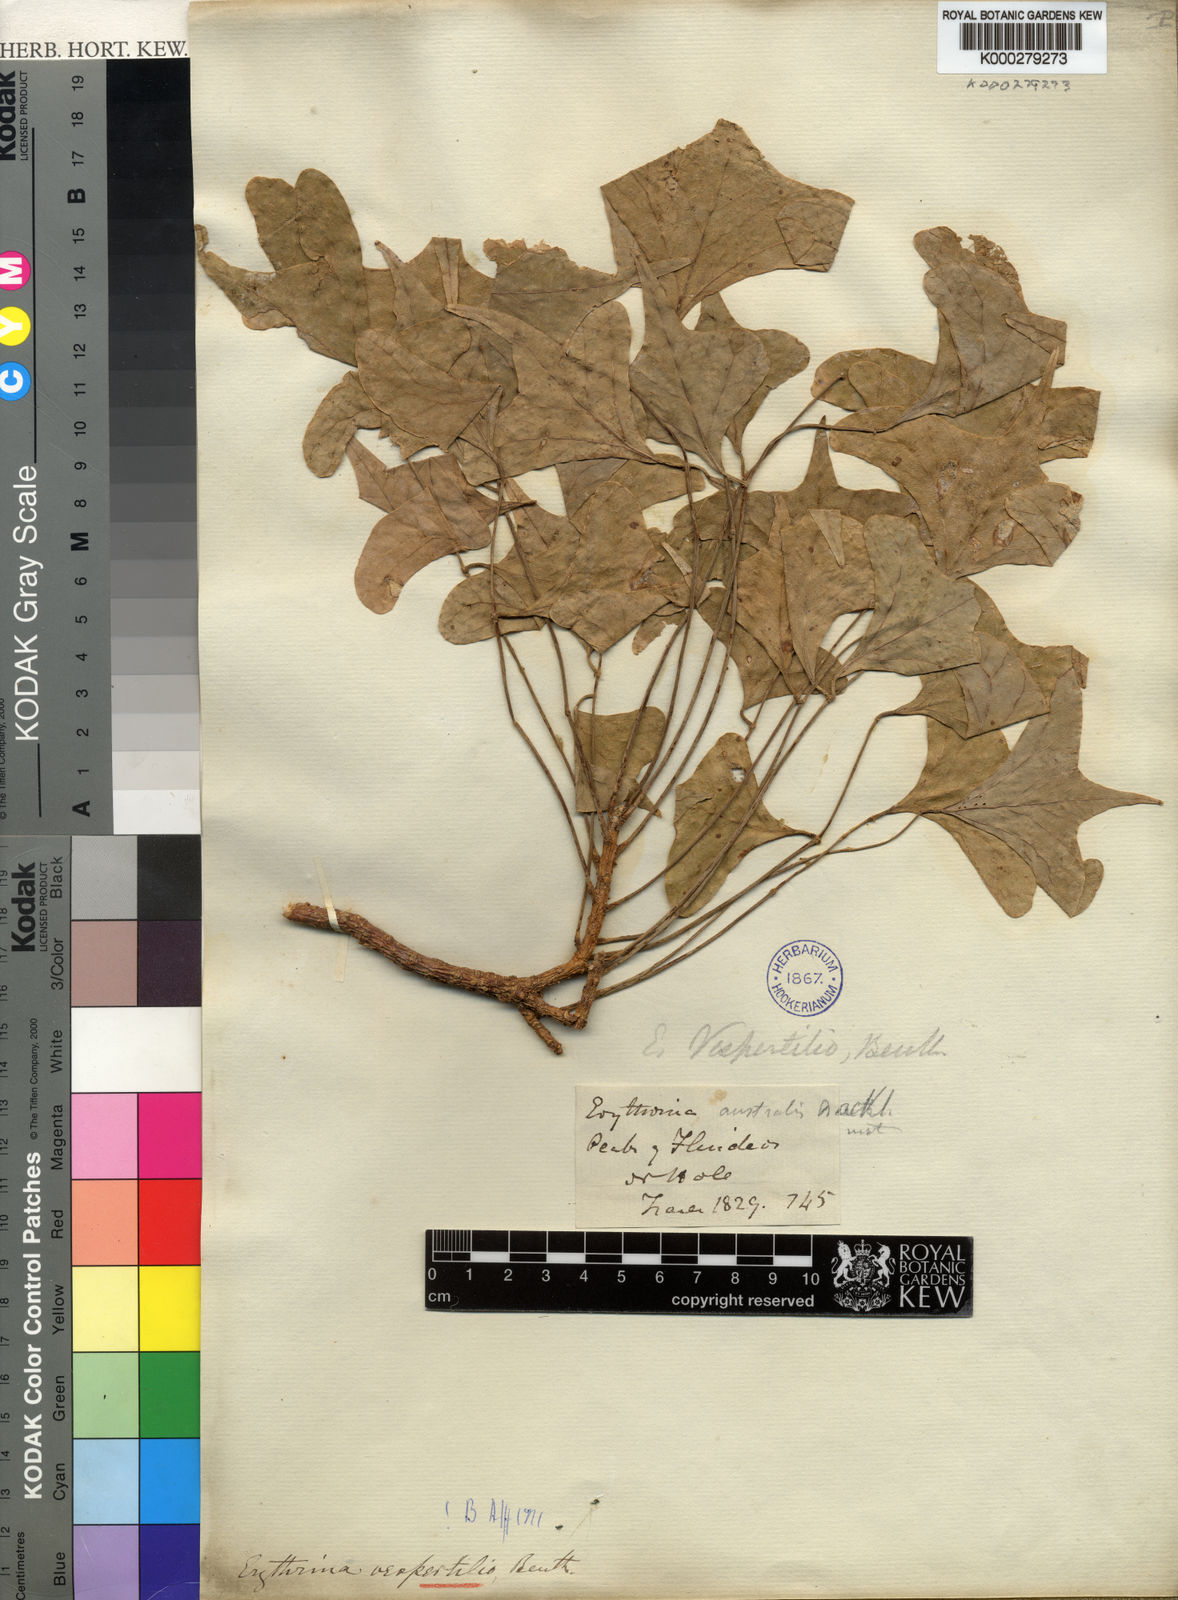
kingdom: Plantae
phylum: Tracheophyta
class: Magnoliopsida
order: Fabales
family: Fabaceae
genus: Erythrina
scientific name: Erythrina vespertilio
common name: Bat-wing coral tree
